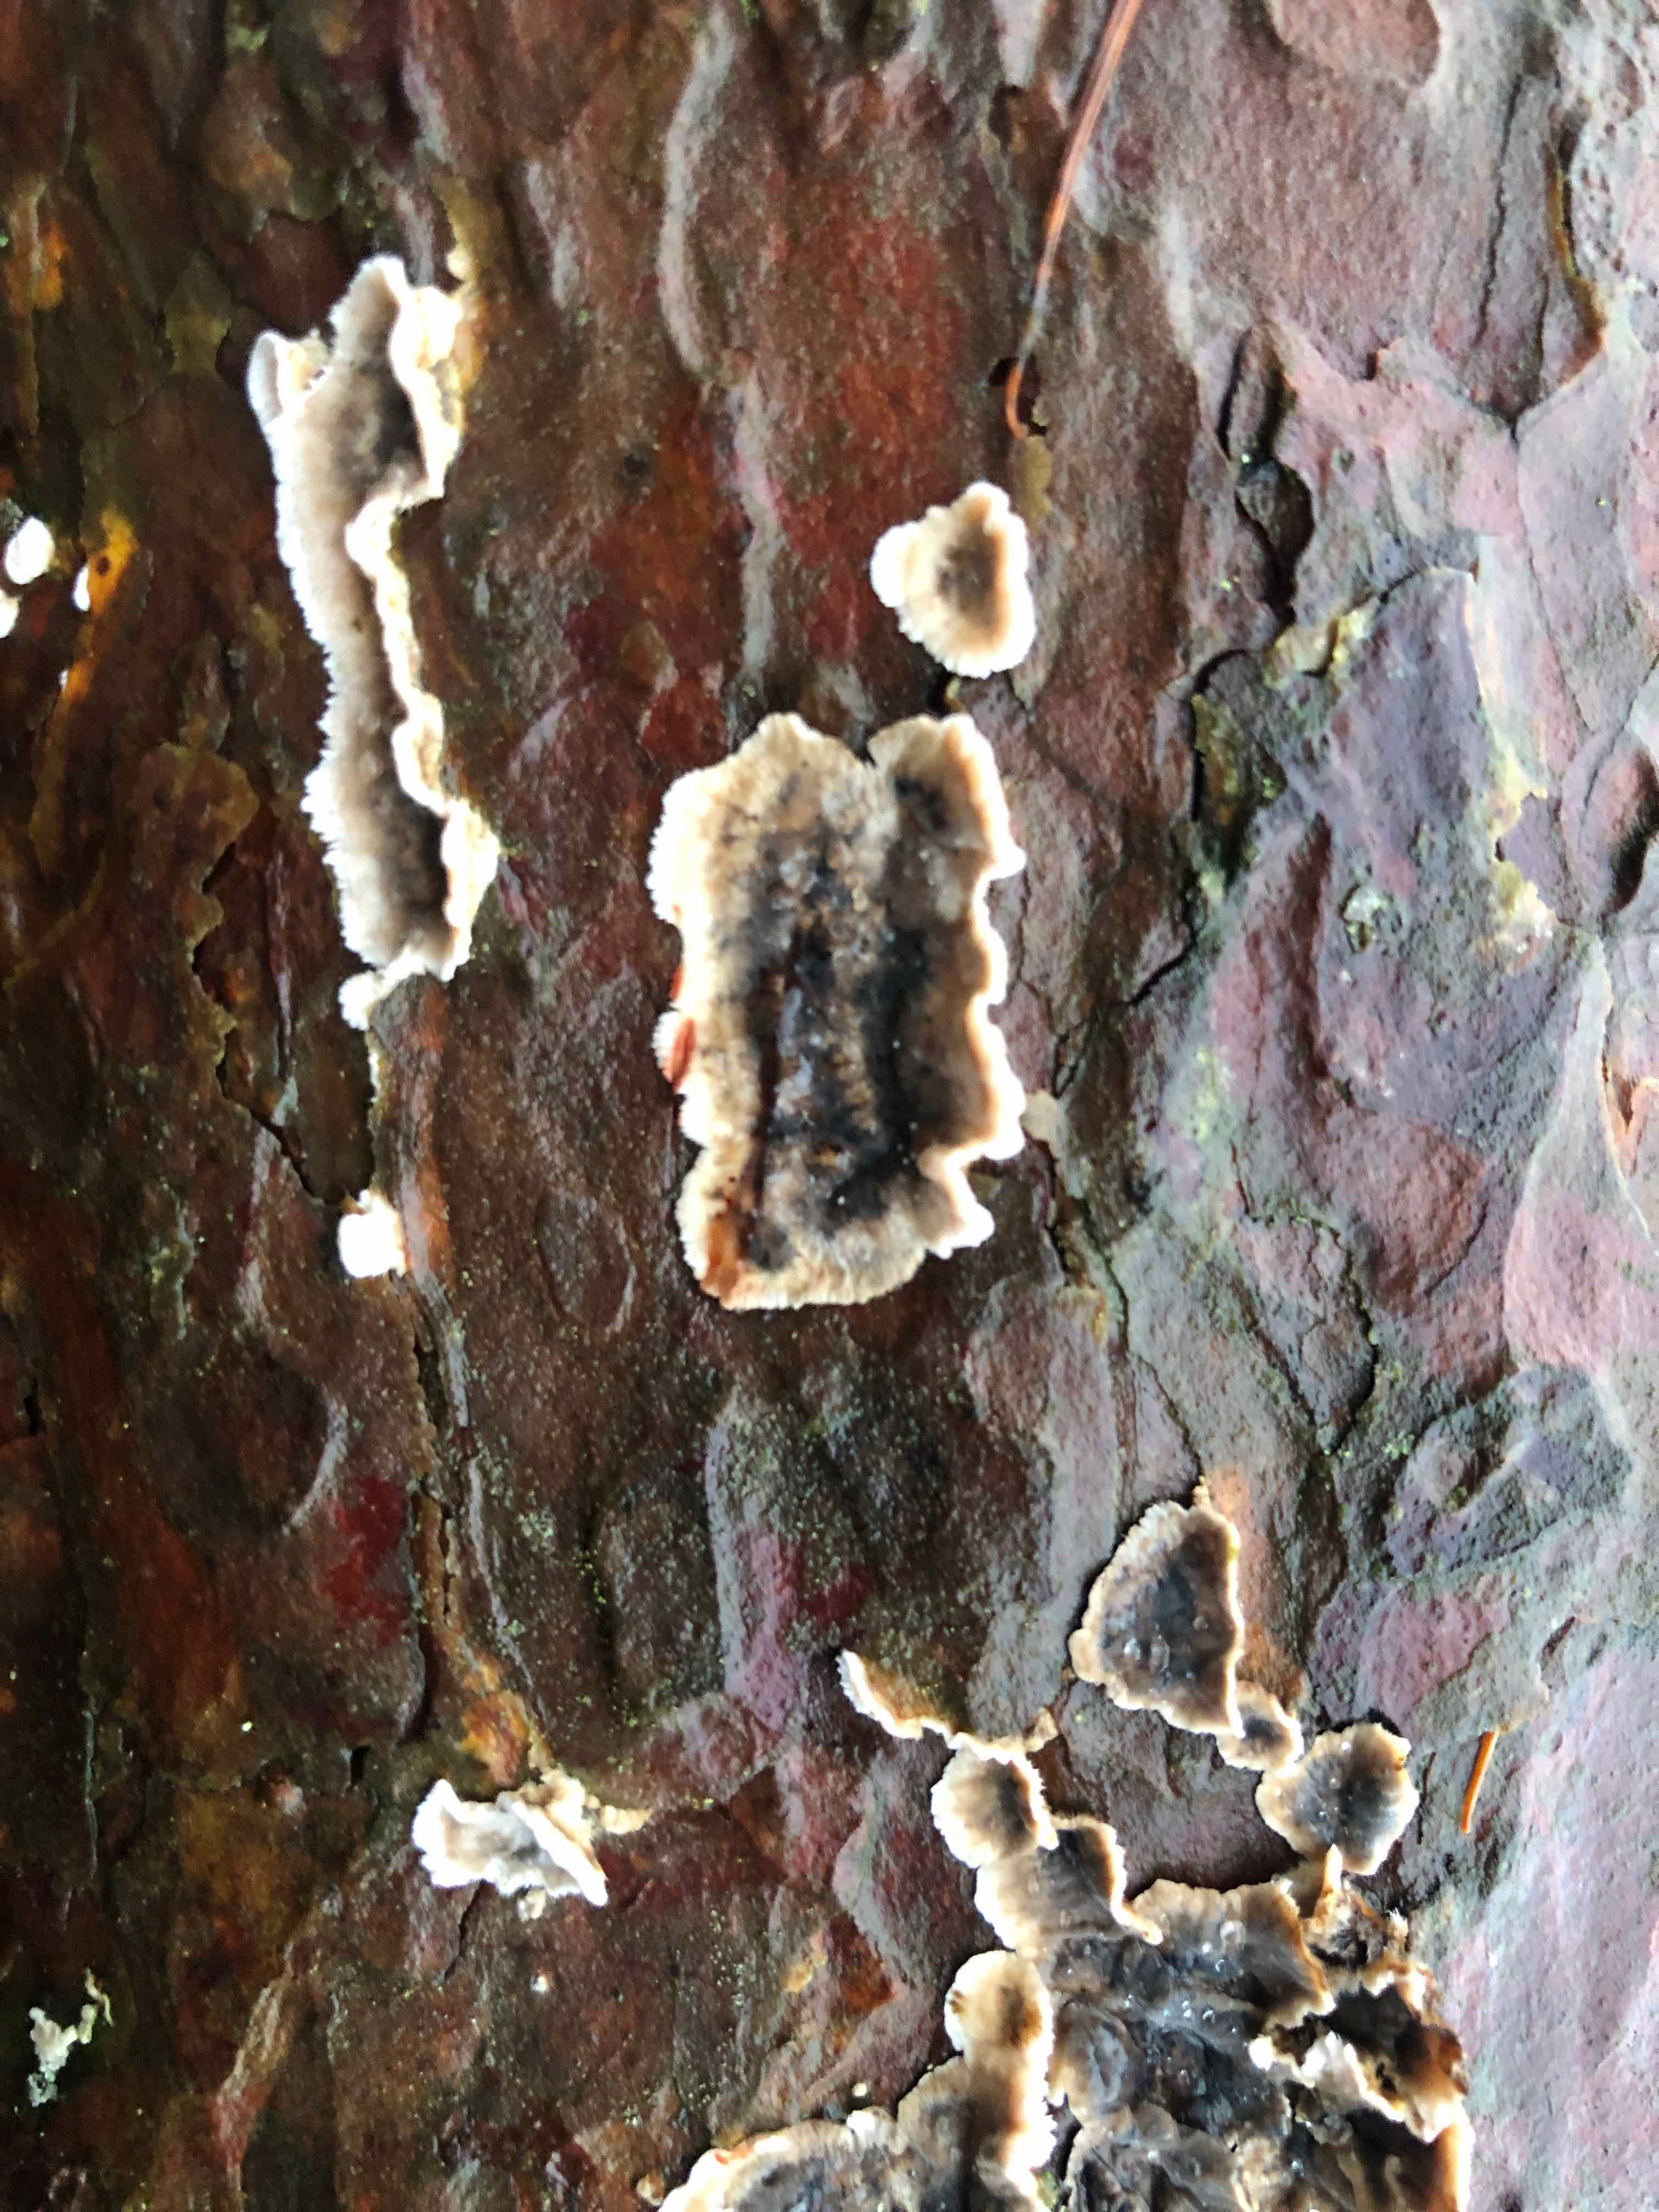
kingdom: Fungi
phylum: Basidiomycota
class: Agaricomycetes
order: Russulales
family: Stereaceae
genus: Stereum
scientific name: Stereum sanguinolentum
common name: blødende lædersvamp
